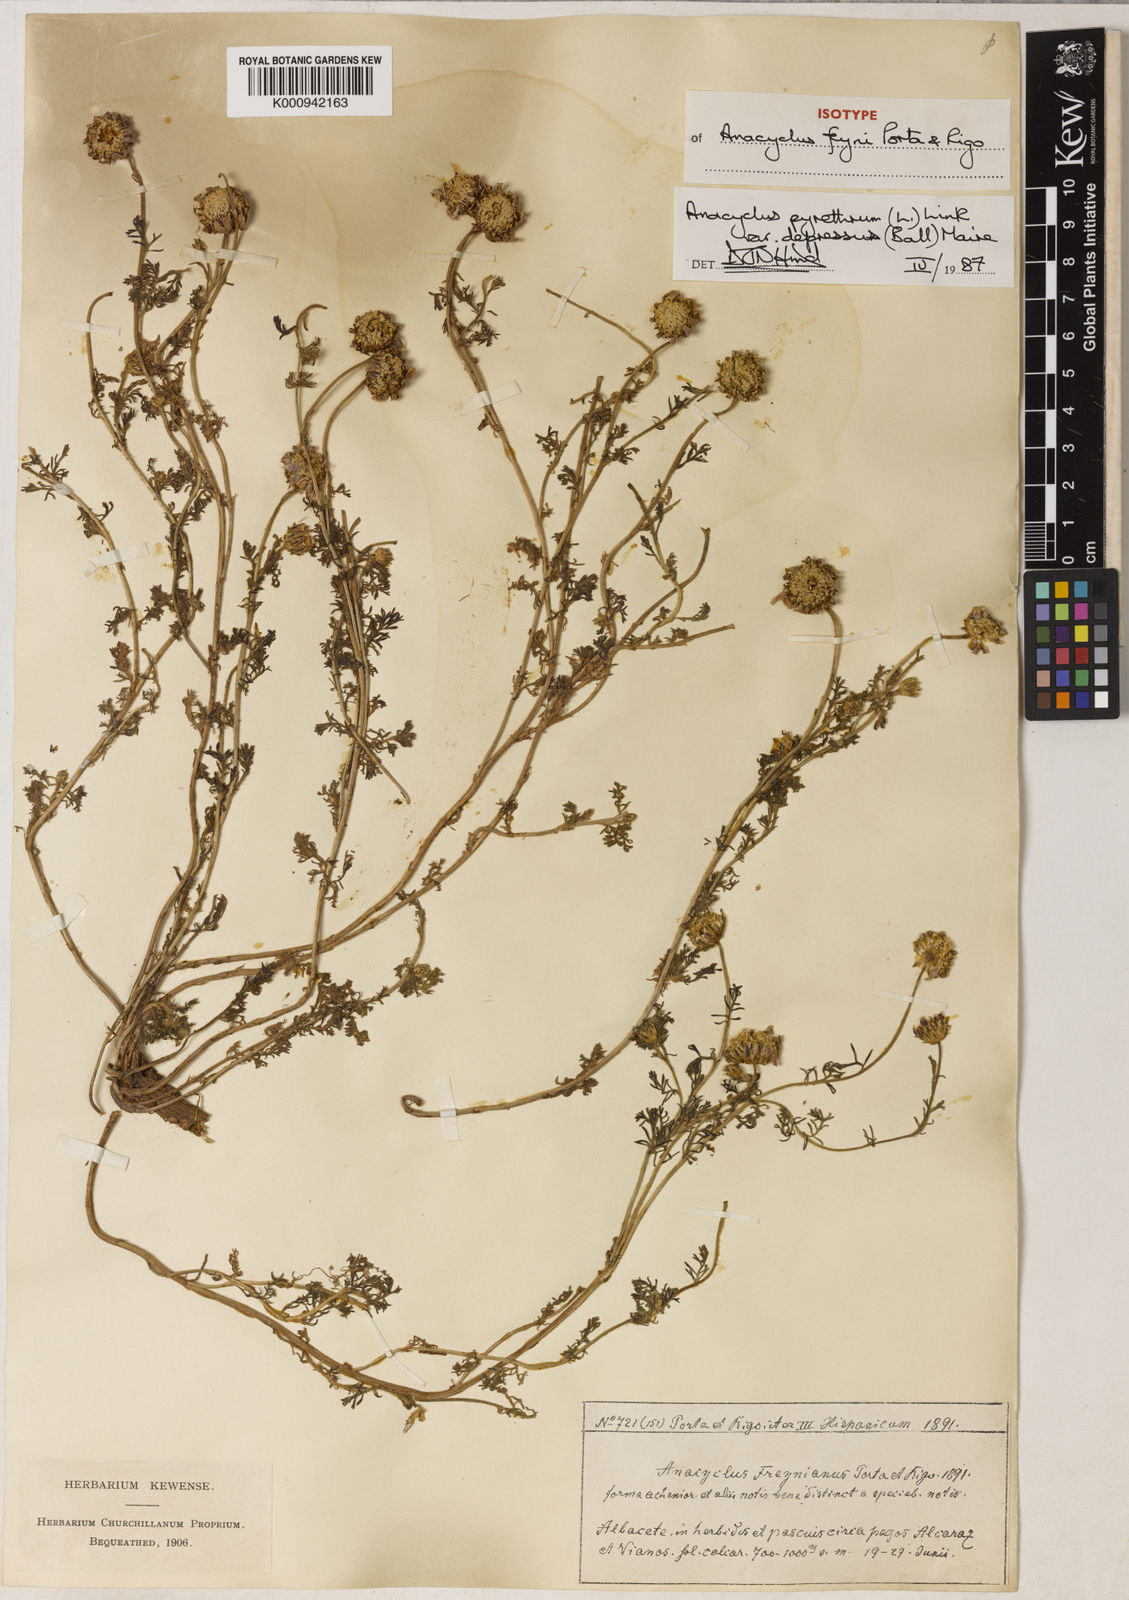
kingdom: Plantae
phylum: Tracheophyta
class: Magnoliopsida
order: Asterales
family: Asteraceae
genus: Anacyclus
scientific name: Anacyclus pyrethrum
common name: Mt. atlas daisy
